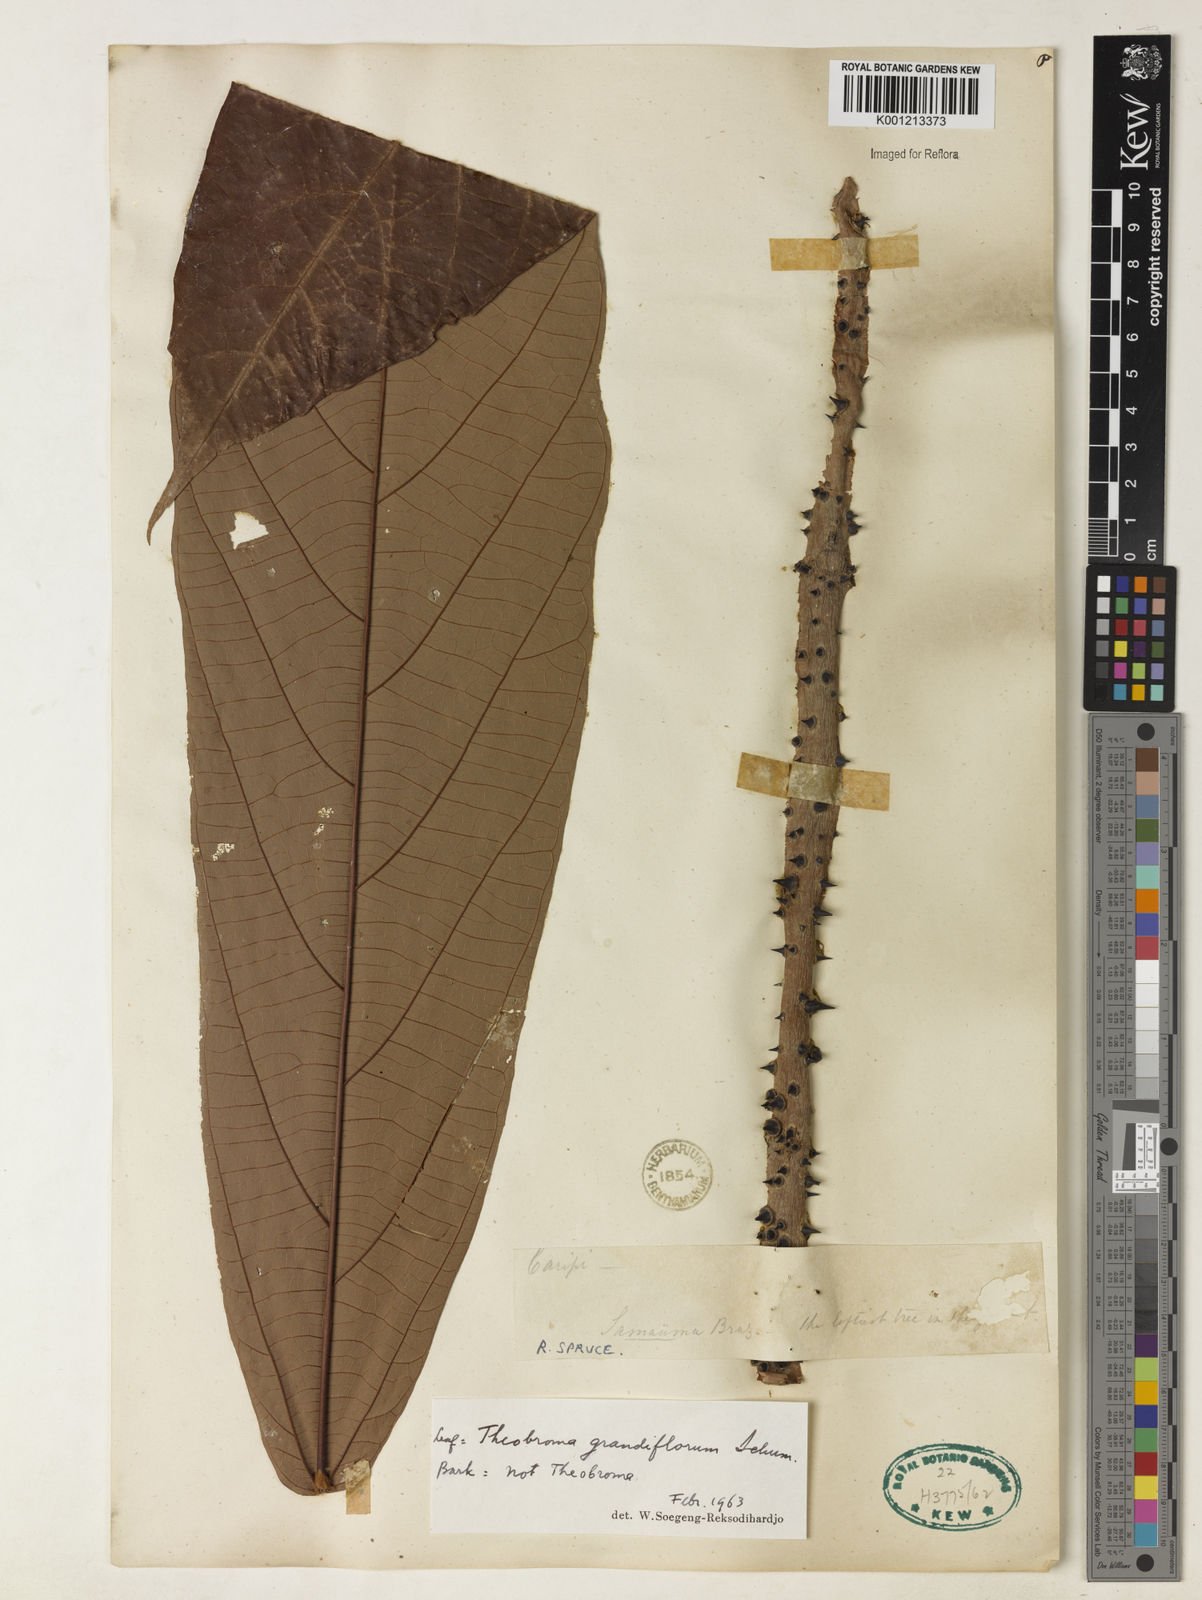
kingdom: Plantae
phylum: Tracheophyta
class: Magnoliopsida
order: Malvales
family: Malvaceae
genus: Theobroma
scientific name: Theobroma grandiflorum
